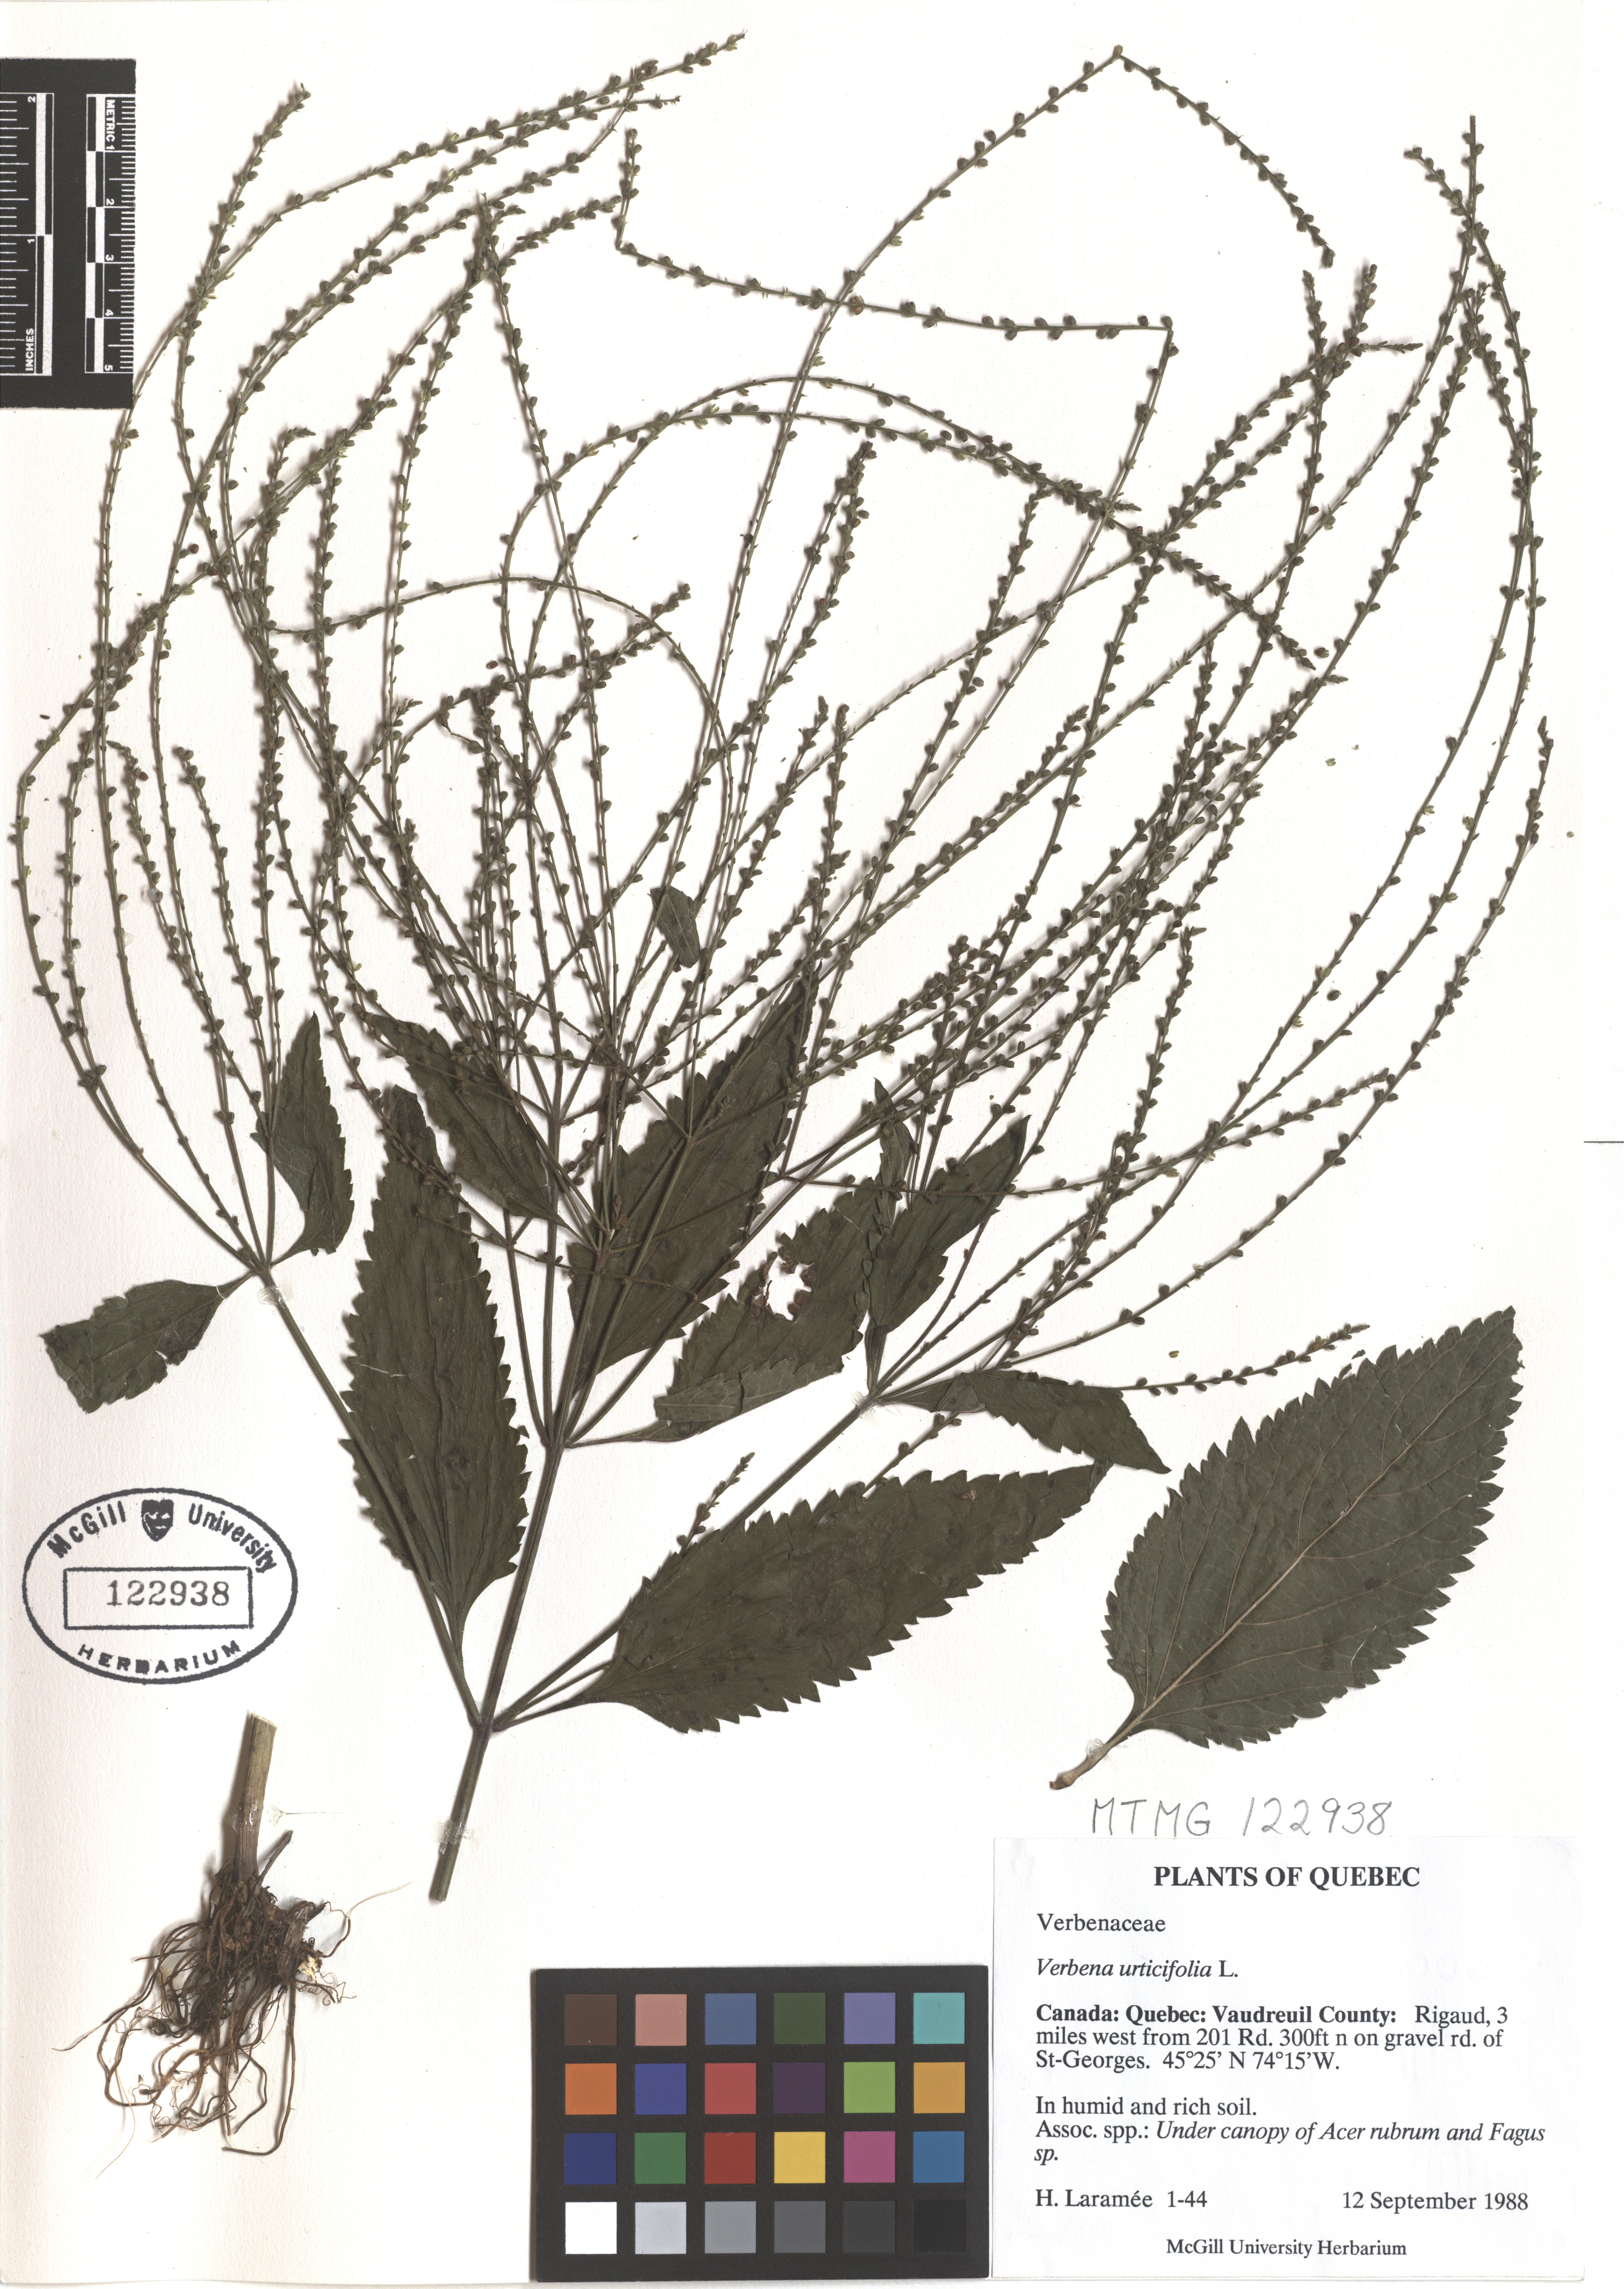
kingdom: Plantae
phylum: Tracheophyta
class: Magnoliopsida
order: Lamiales
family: Verbenaceae
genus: Verbena
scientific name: Verbena urticifolia
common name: Nettle-leaved vervain
